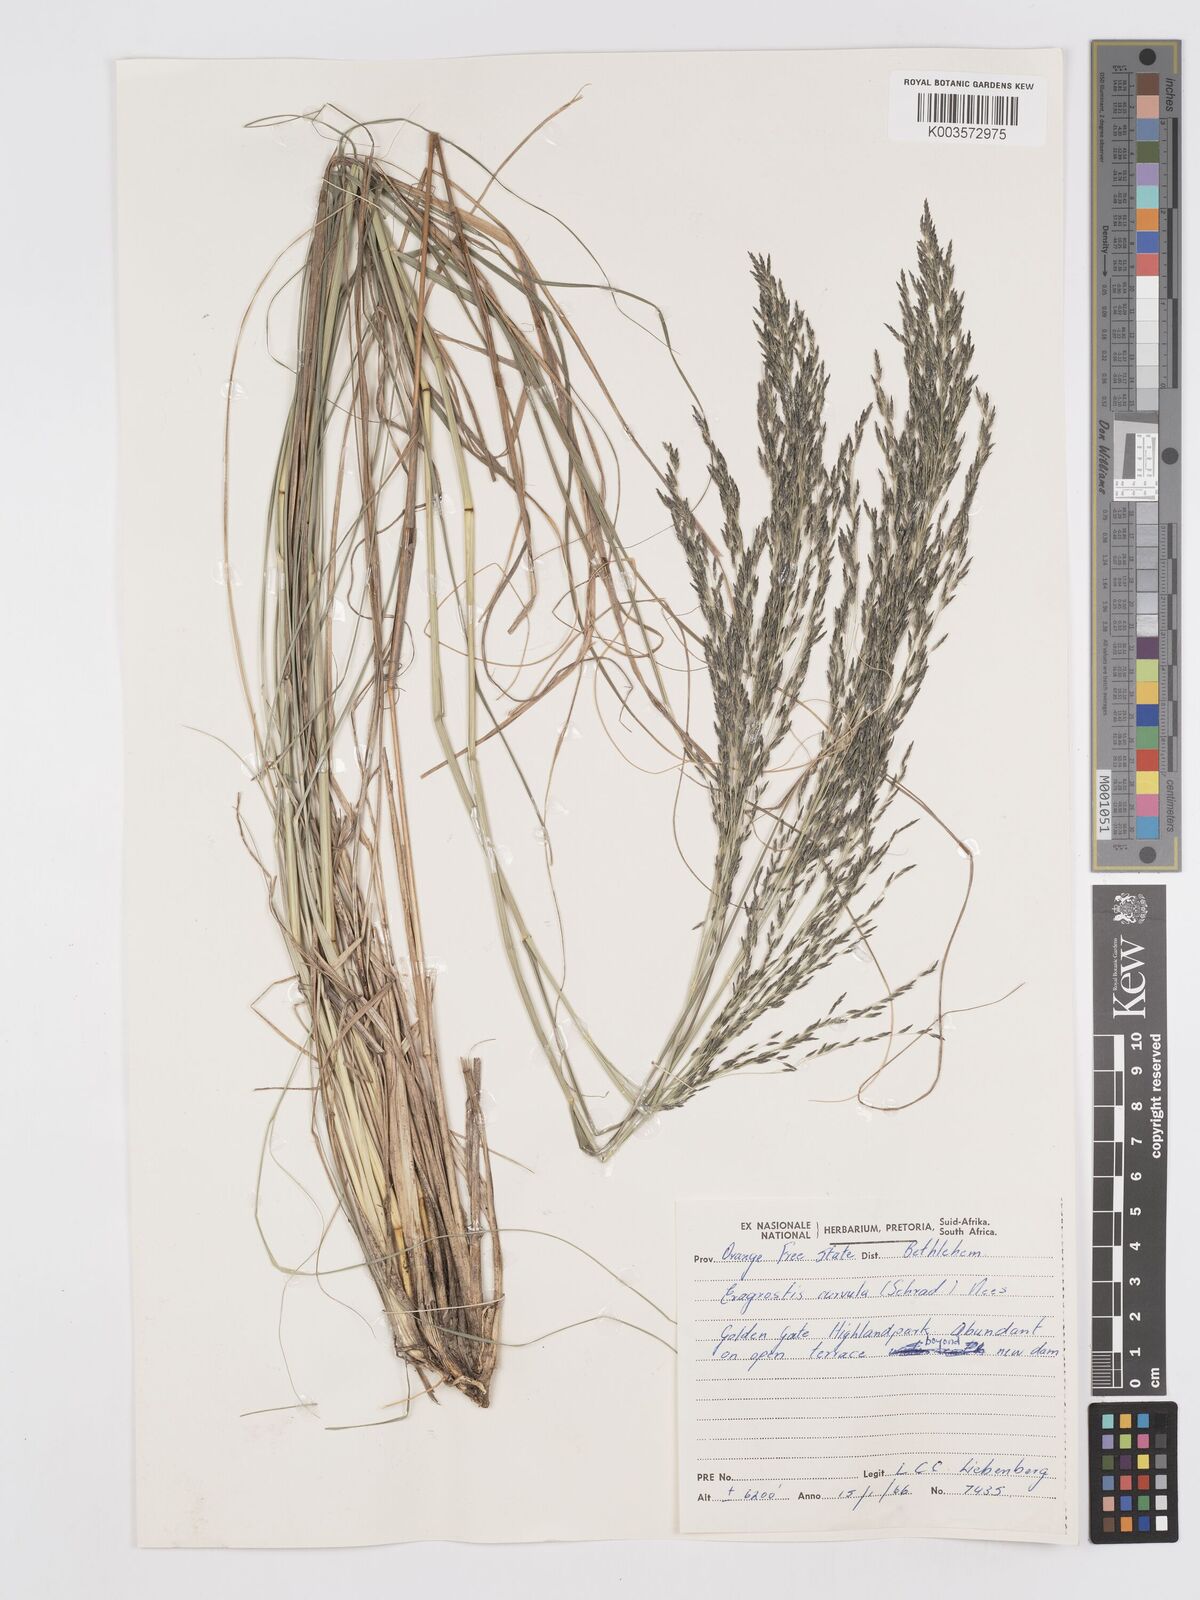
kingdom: Plantae
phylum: Tracheophyta
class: Liliopsida
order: Poales
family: Poaceae
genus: Eragrostis
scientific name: Eragrostis curvula
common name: African love-grass
